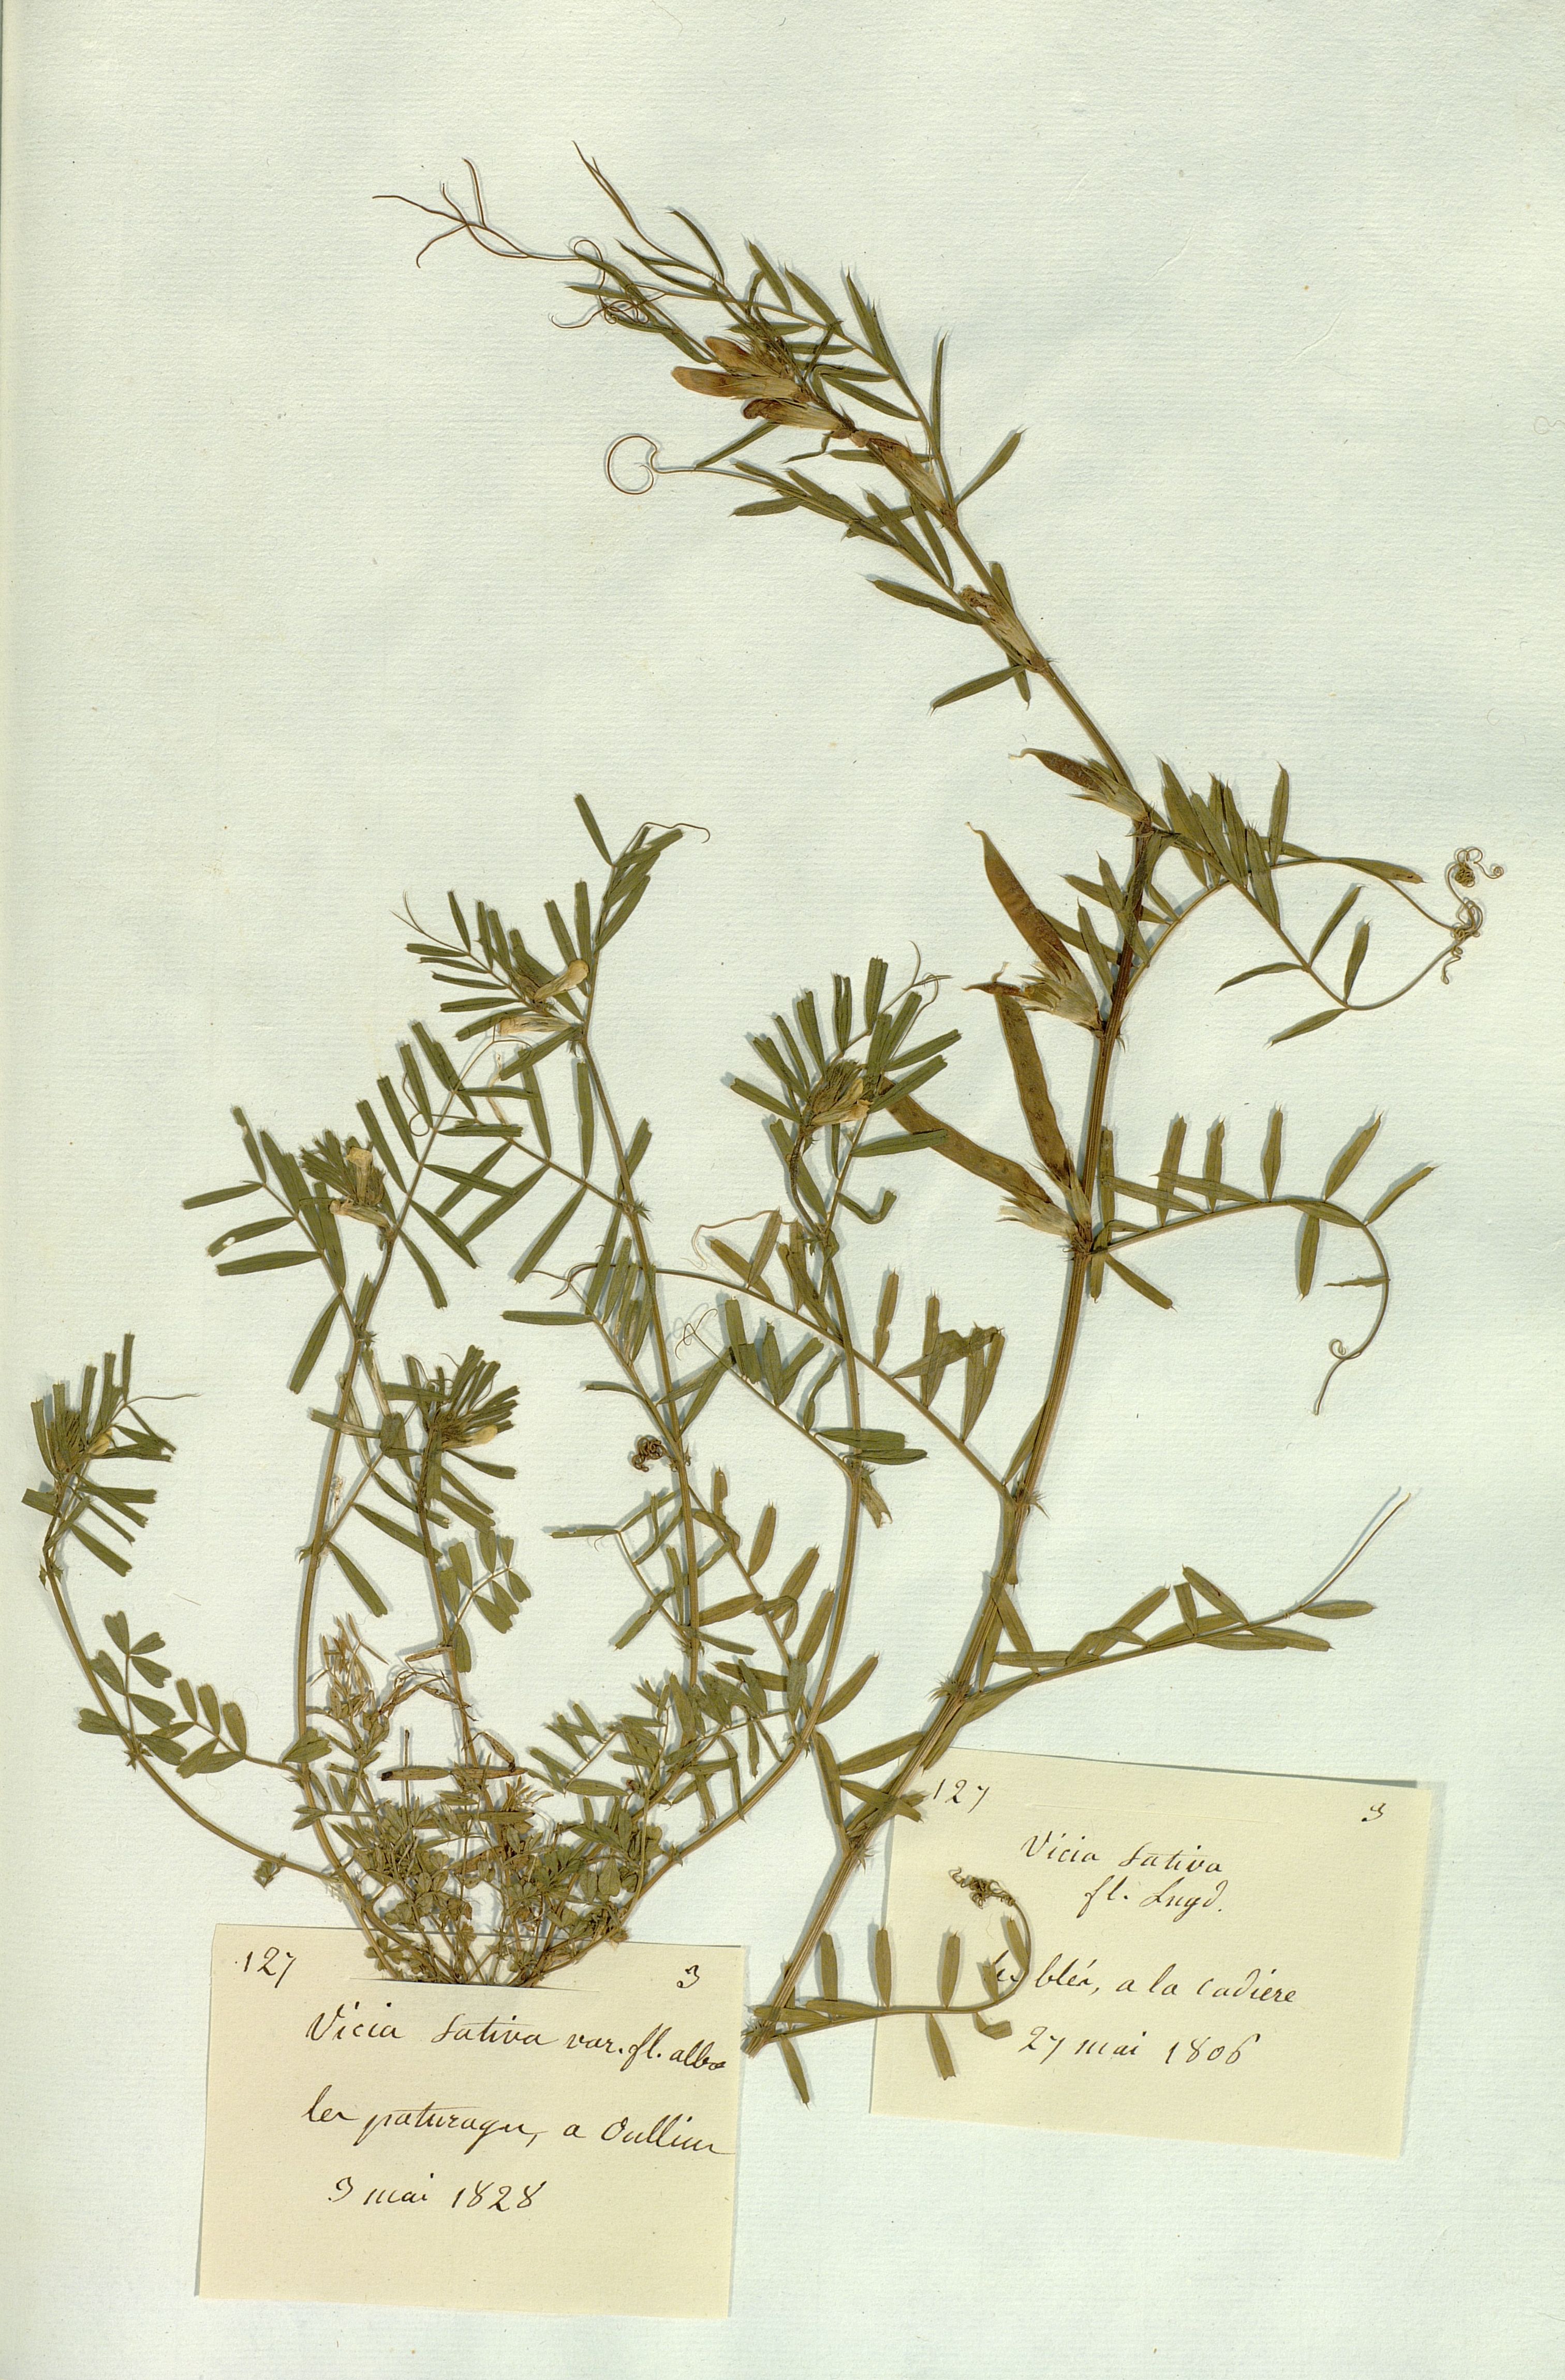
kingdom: Plantae
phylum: Tracheophyta
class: Magnoliopsida
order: Fabales
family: Fabaceae
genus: Vicia
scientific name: Vicia sativa
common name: Garden vetch
